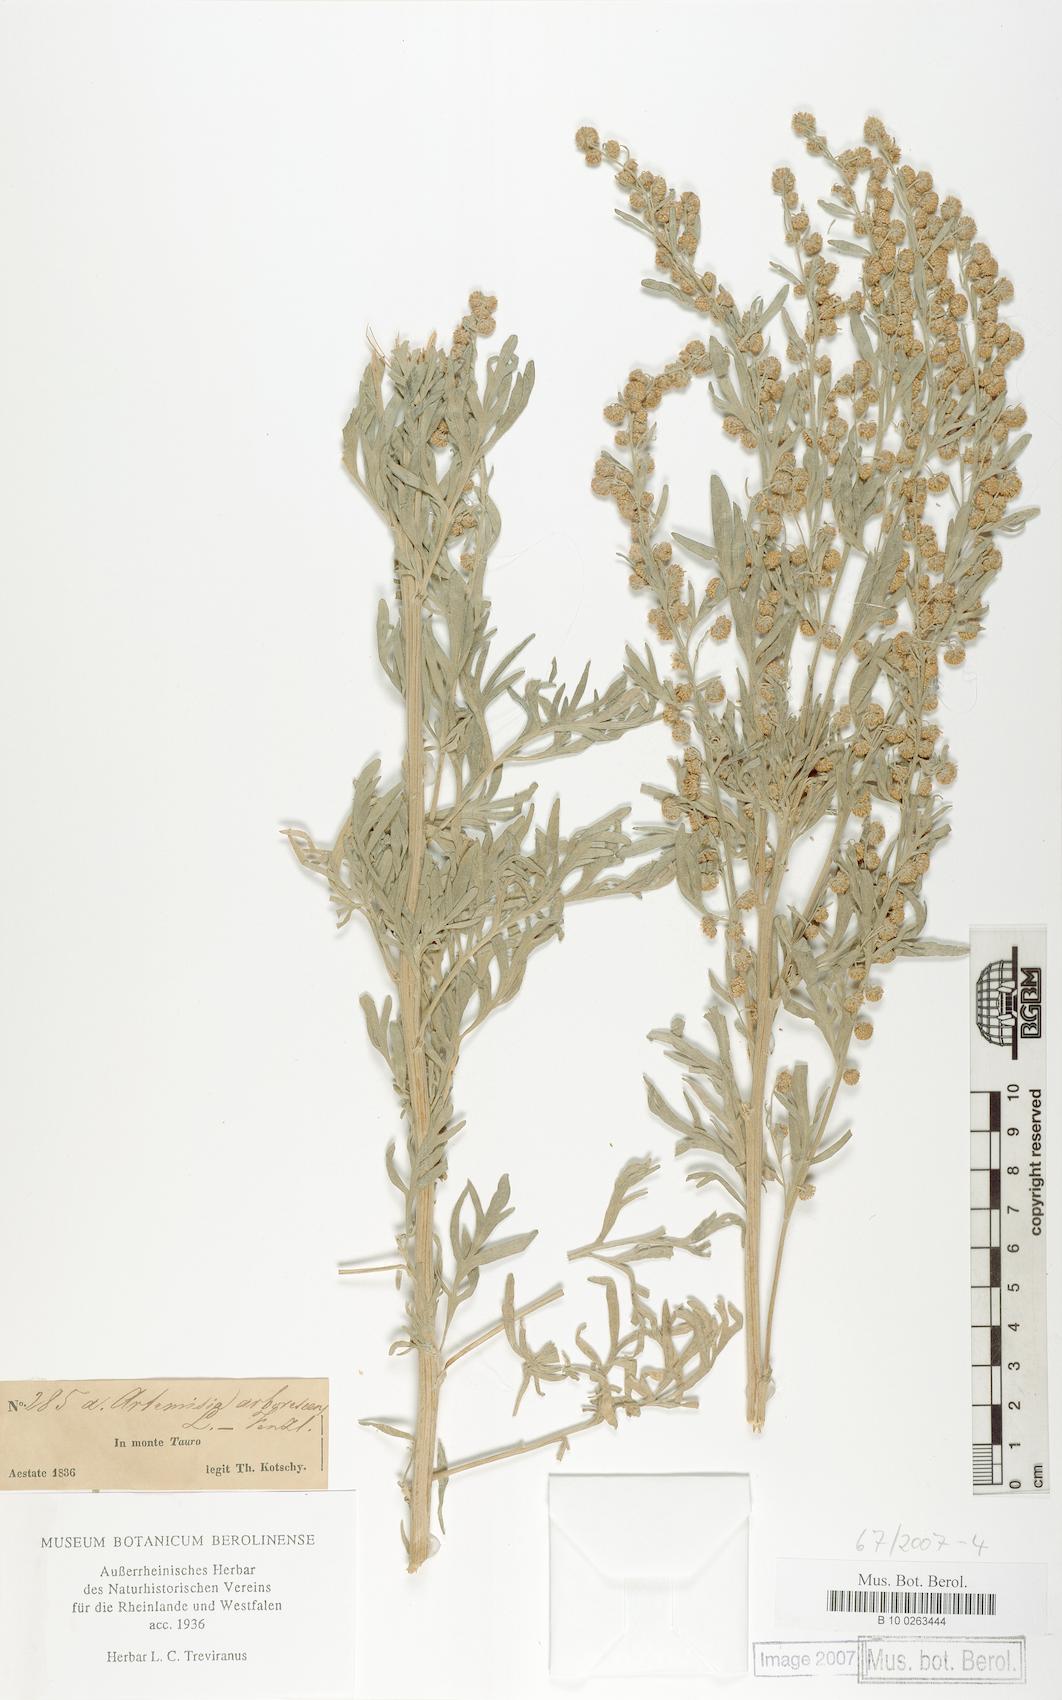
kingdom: Plantae
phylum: Tracheophyta
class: Magnoliopsida
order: Asterales
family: Asteraceae
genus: Artemisia
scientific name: Artemisia arborescens
